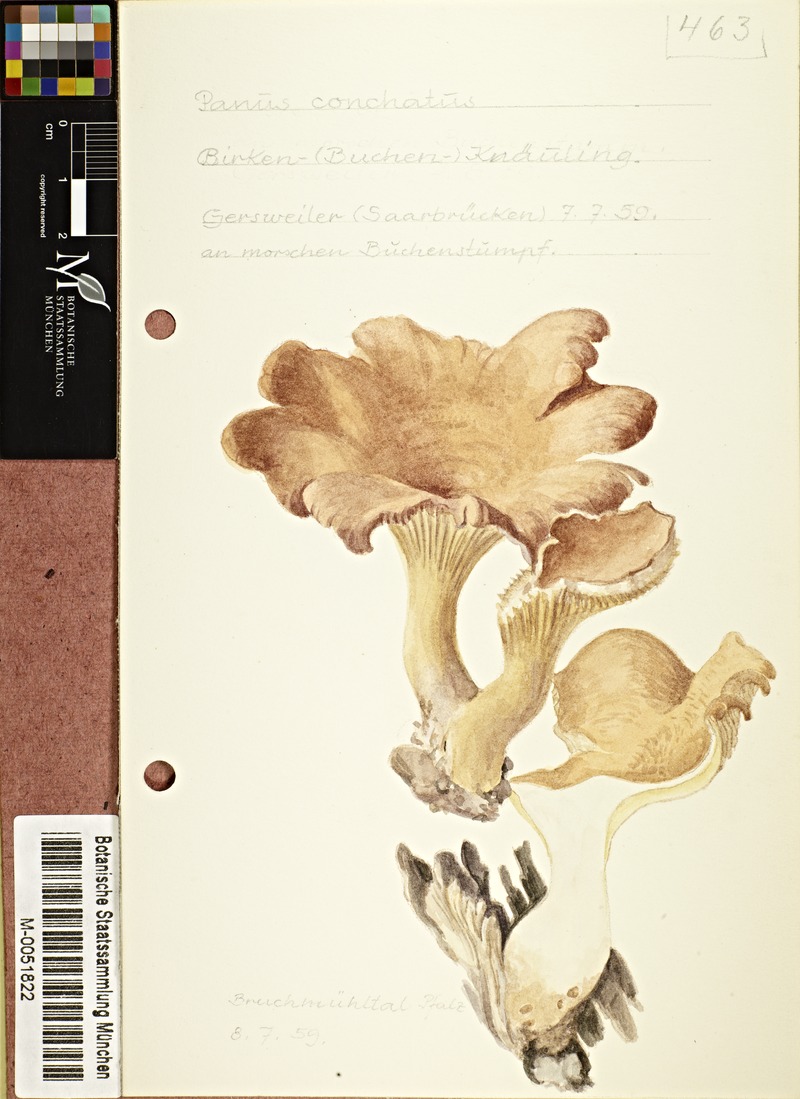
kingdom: Fungi
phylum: Basidiomycota
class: Agaricomycetes
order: Polyporales
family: Polyporaceae
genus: Lentinus
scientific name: Lentinus
